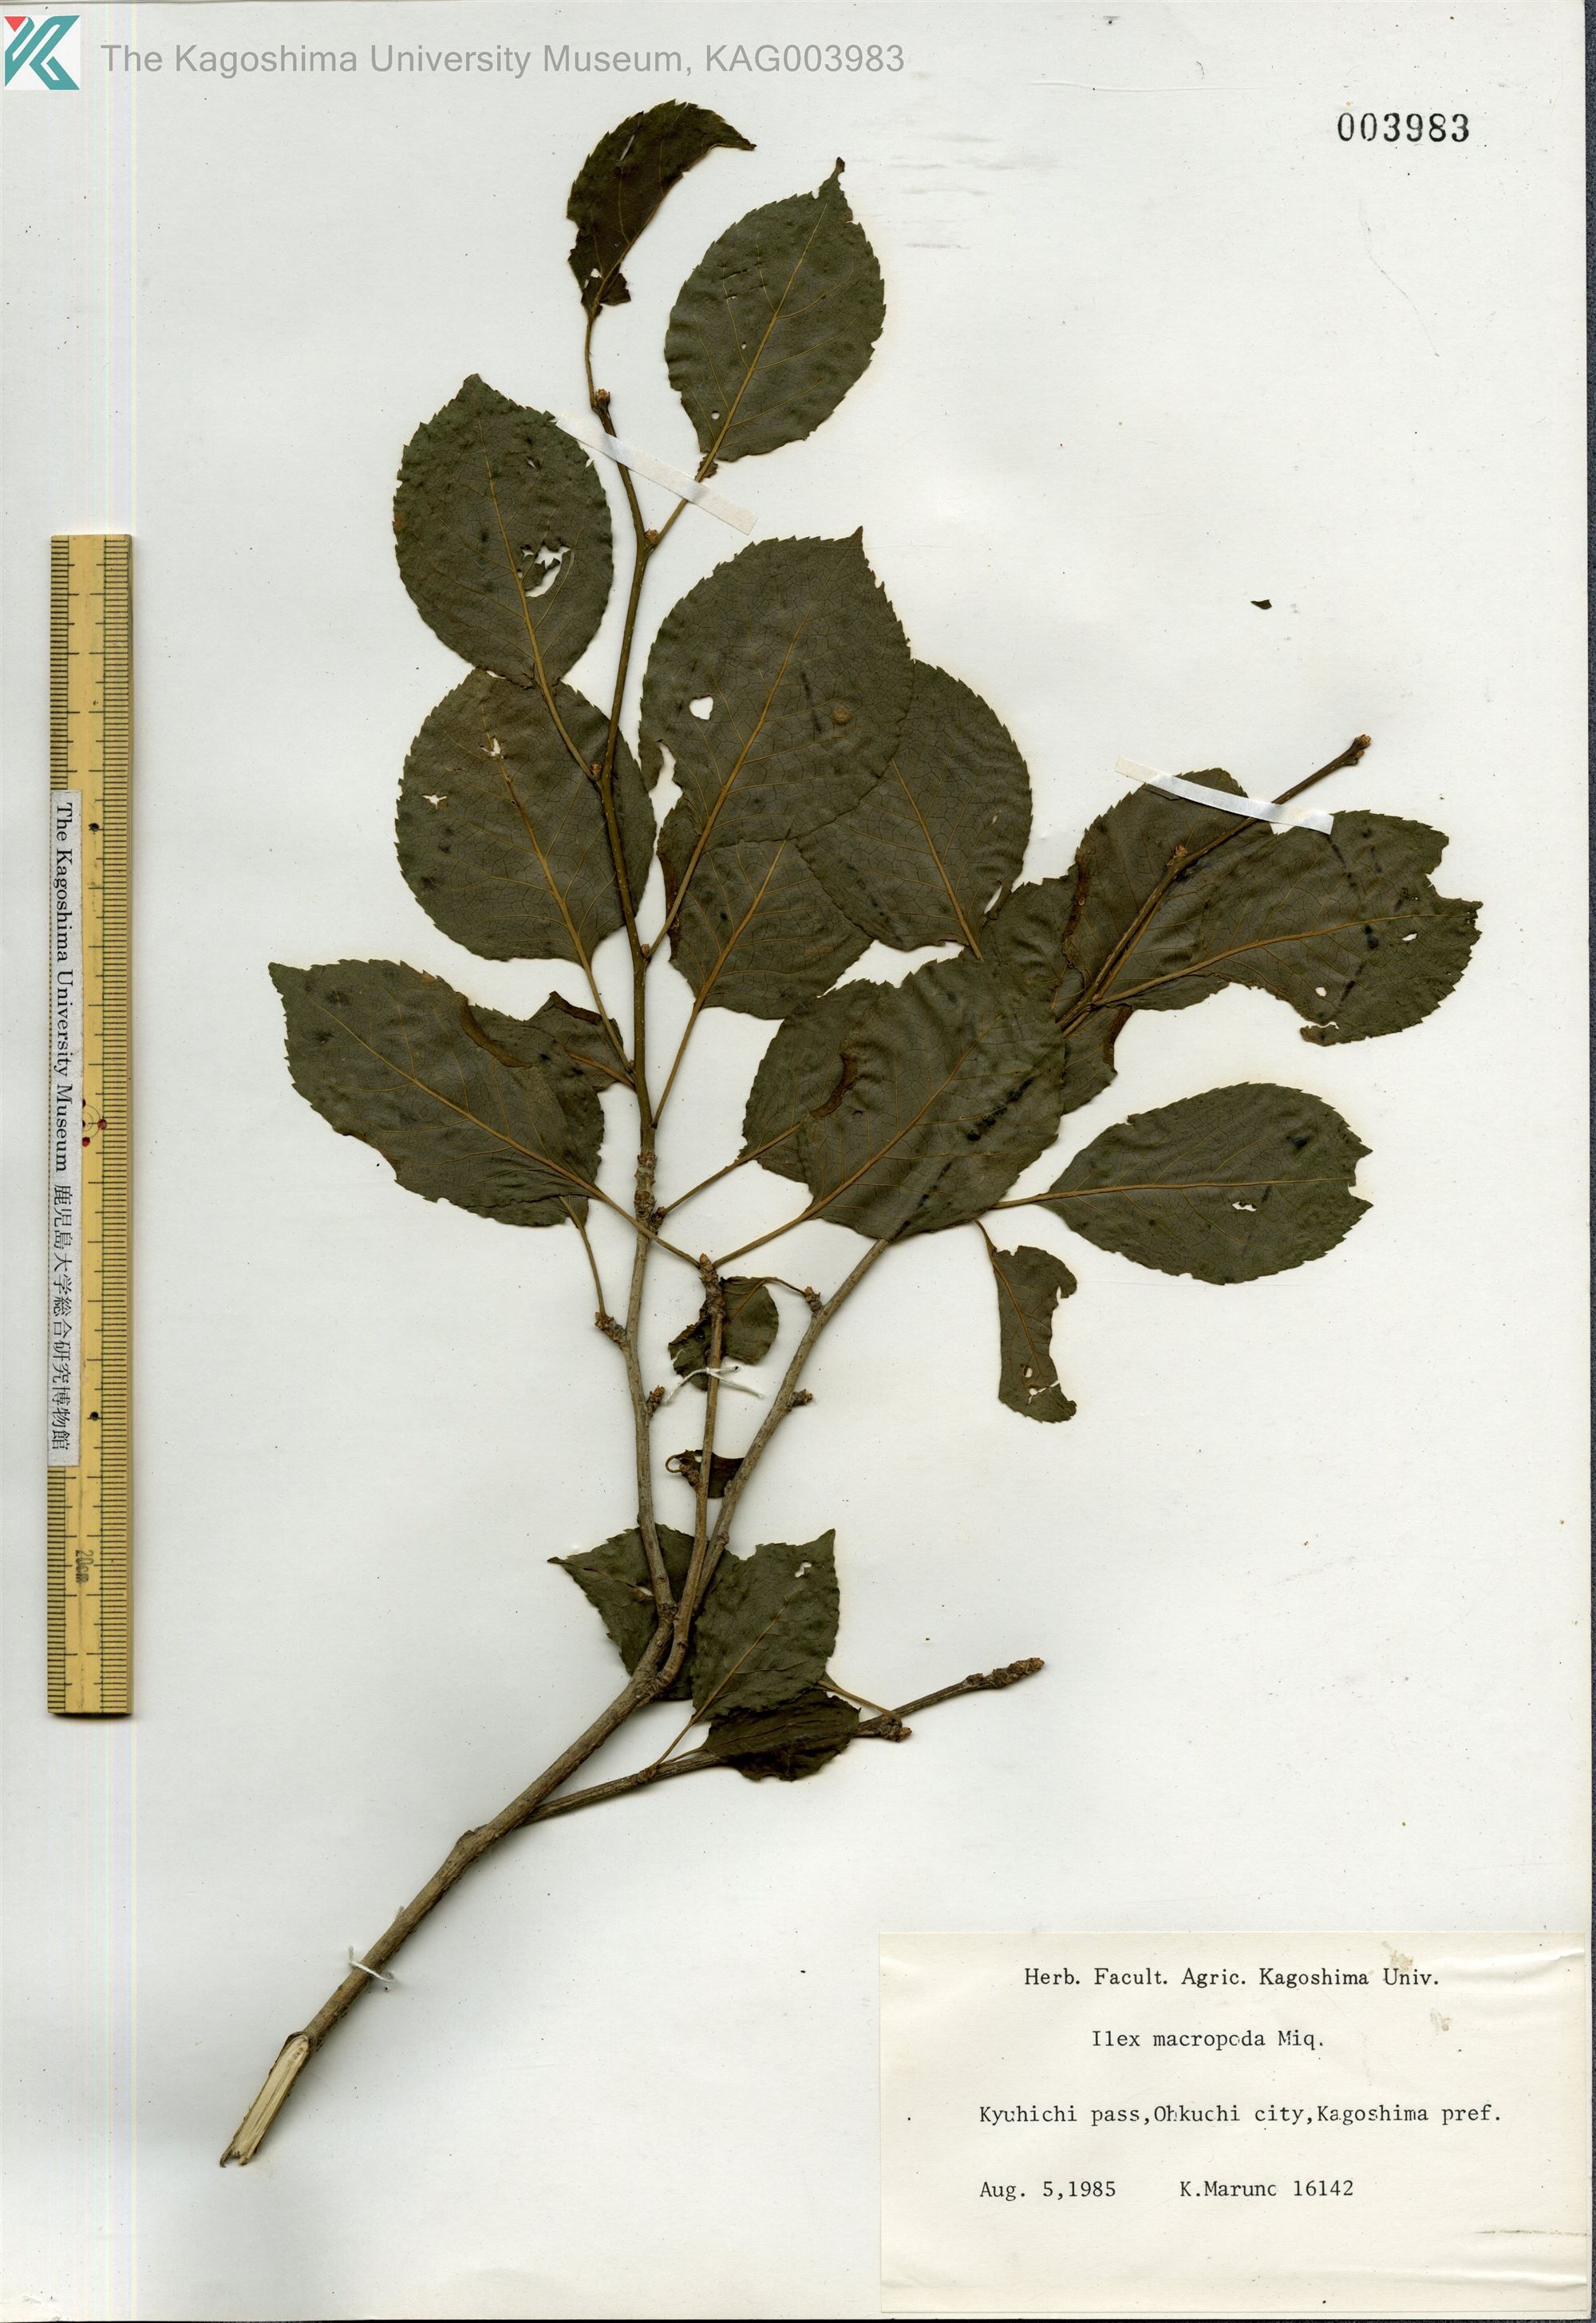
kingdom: Plantae
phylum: Tracheophyta
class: Magnoliopsida
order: Aquifoliales
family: Aquifoliaceae
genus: Ilex
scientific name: Ilex macropoda
